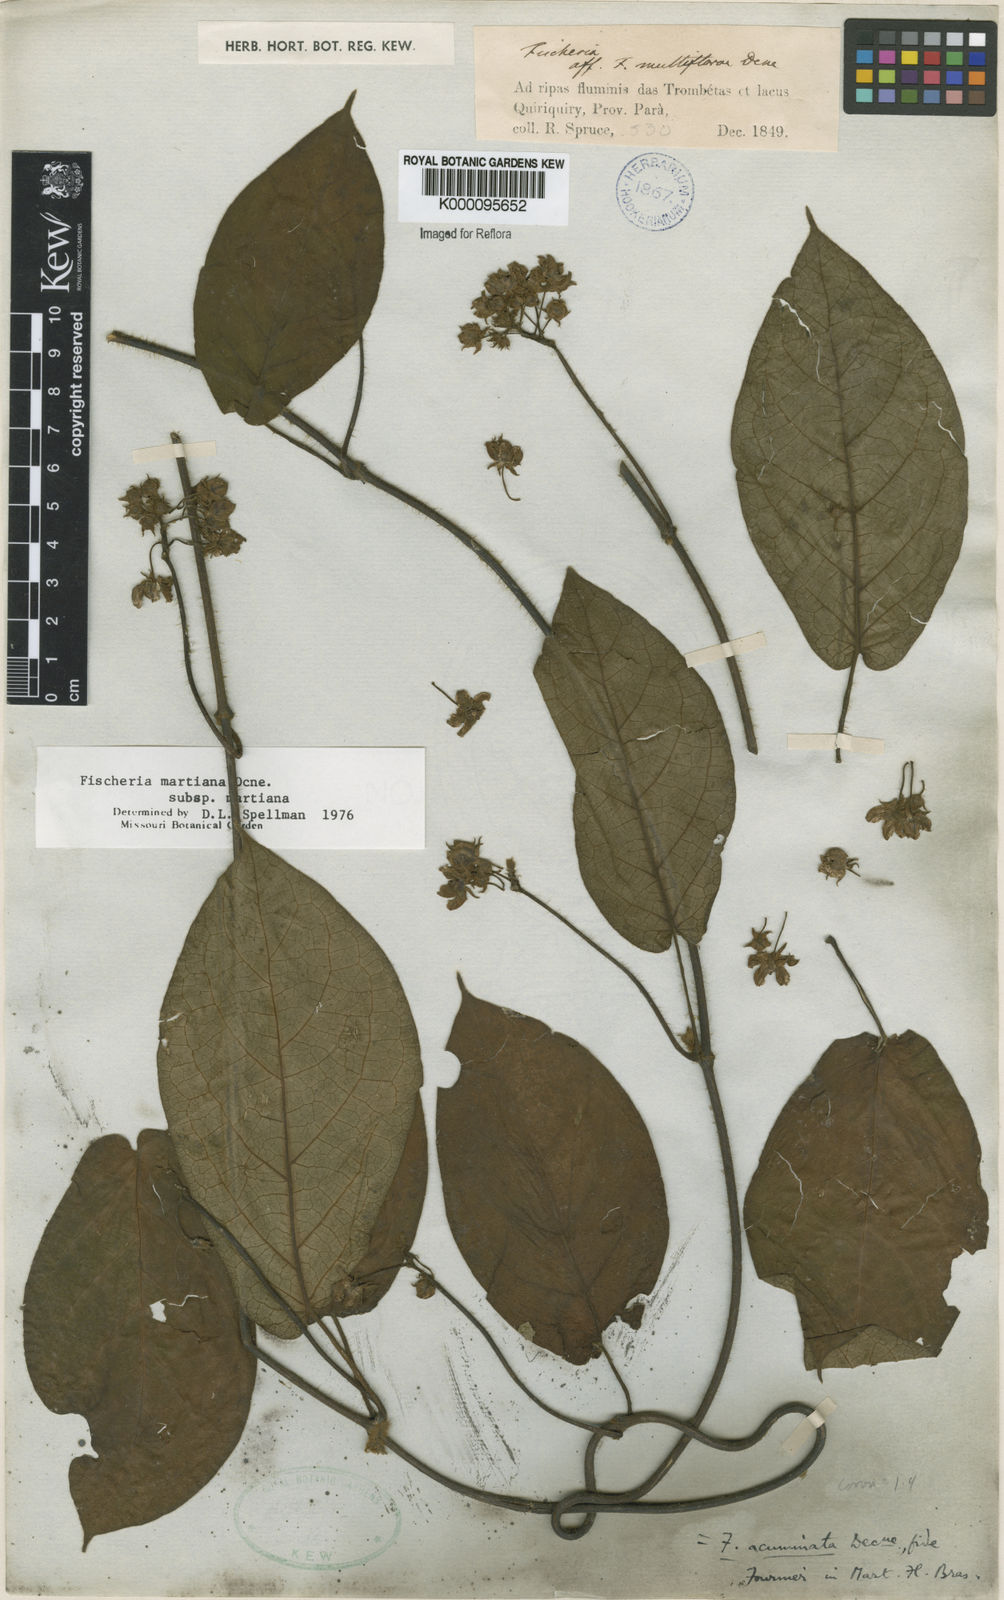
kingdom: Plantae
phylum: Tracheophyta
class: Magnoliopsida
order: Gentianales
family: Apocynaceae
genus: Fischeria
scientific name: Fischeria stellata
